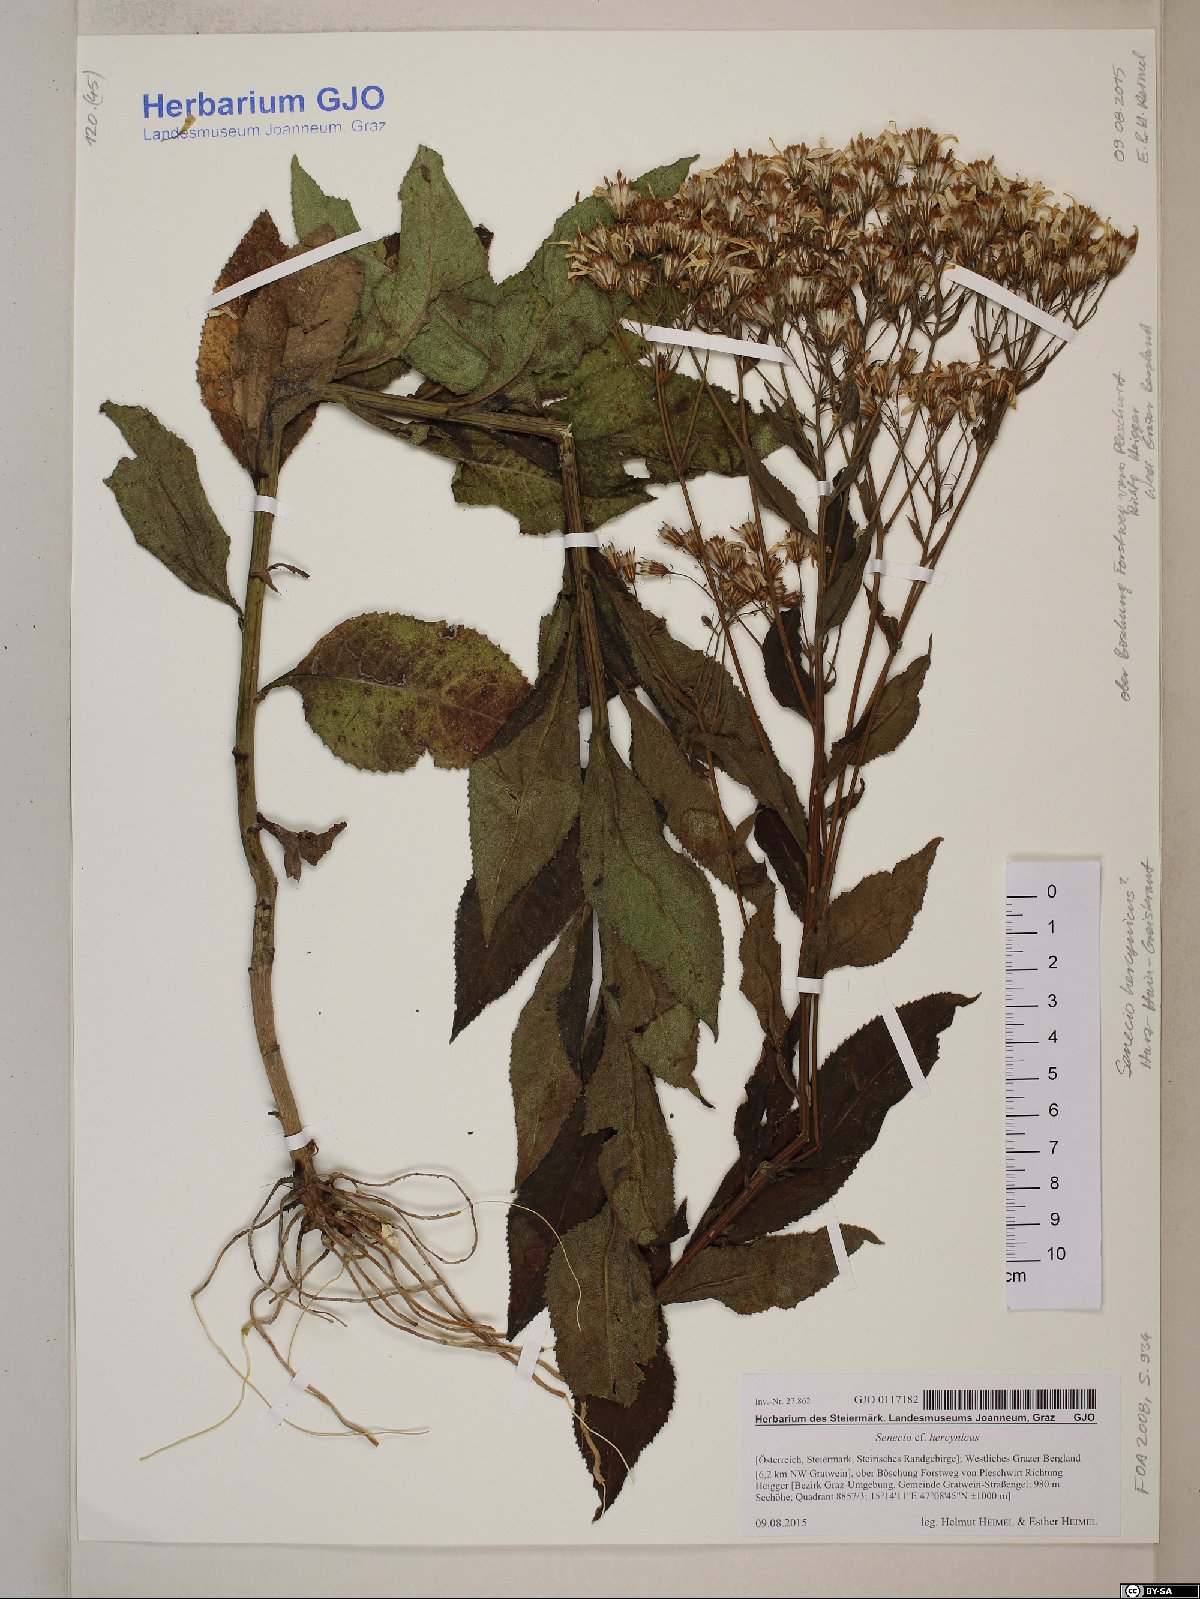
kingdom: Plantae
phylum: Tracheophyta
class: Magnoliopsida
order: Asterales
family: Asteraceae
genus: Senecio
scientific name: Senecio germanicus
